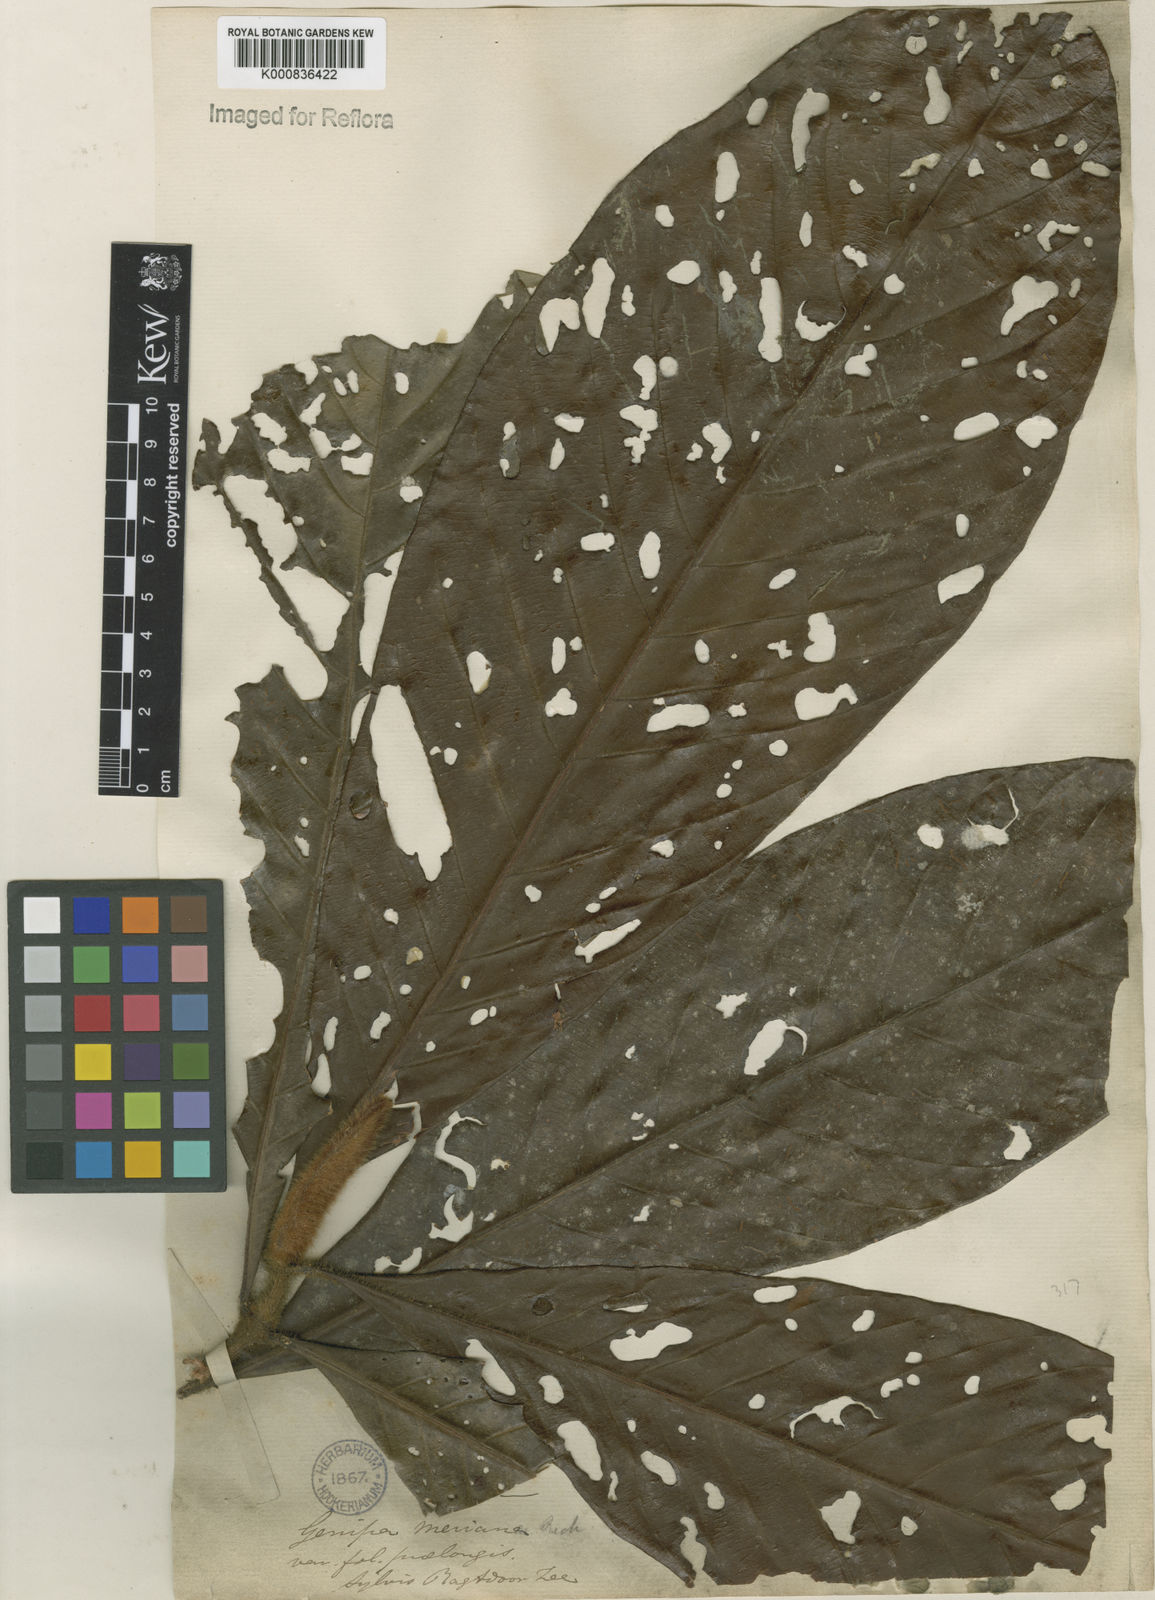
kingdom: Plantae
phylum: Tracheophyta
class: Magnoliopsida
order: Gentianales
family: Rubiaceae
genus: Genipa
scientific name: Genipa americana
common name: Genipap
